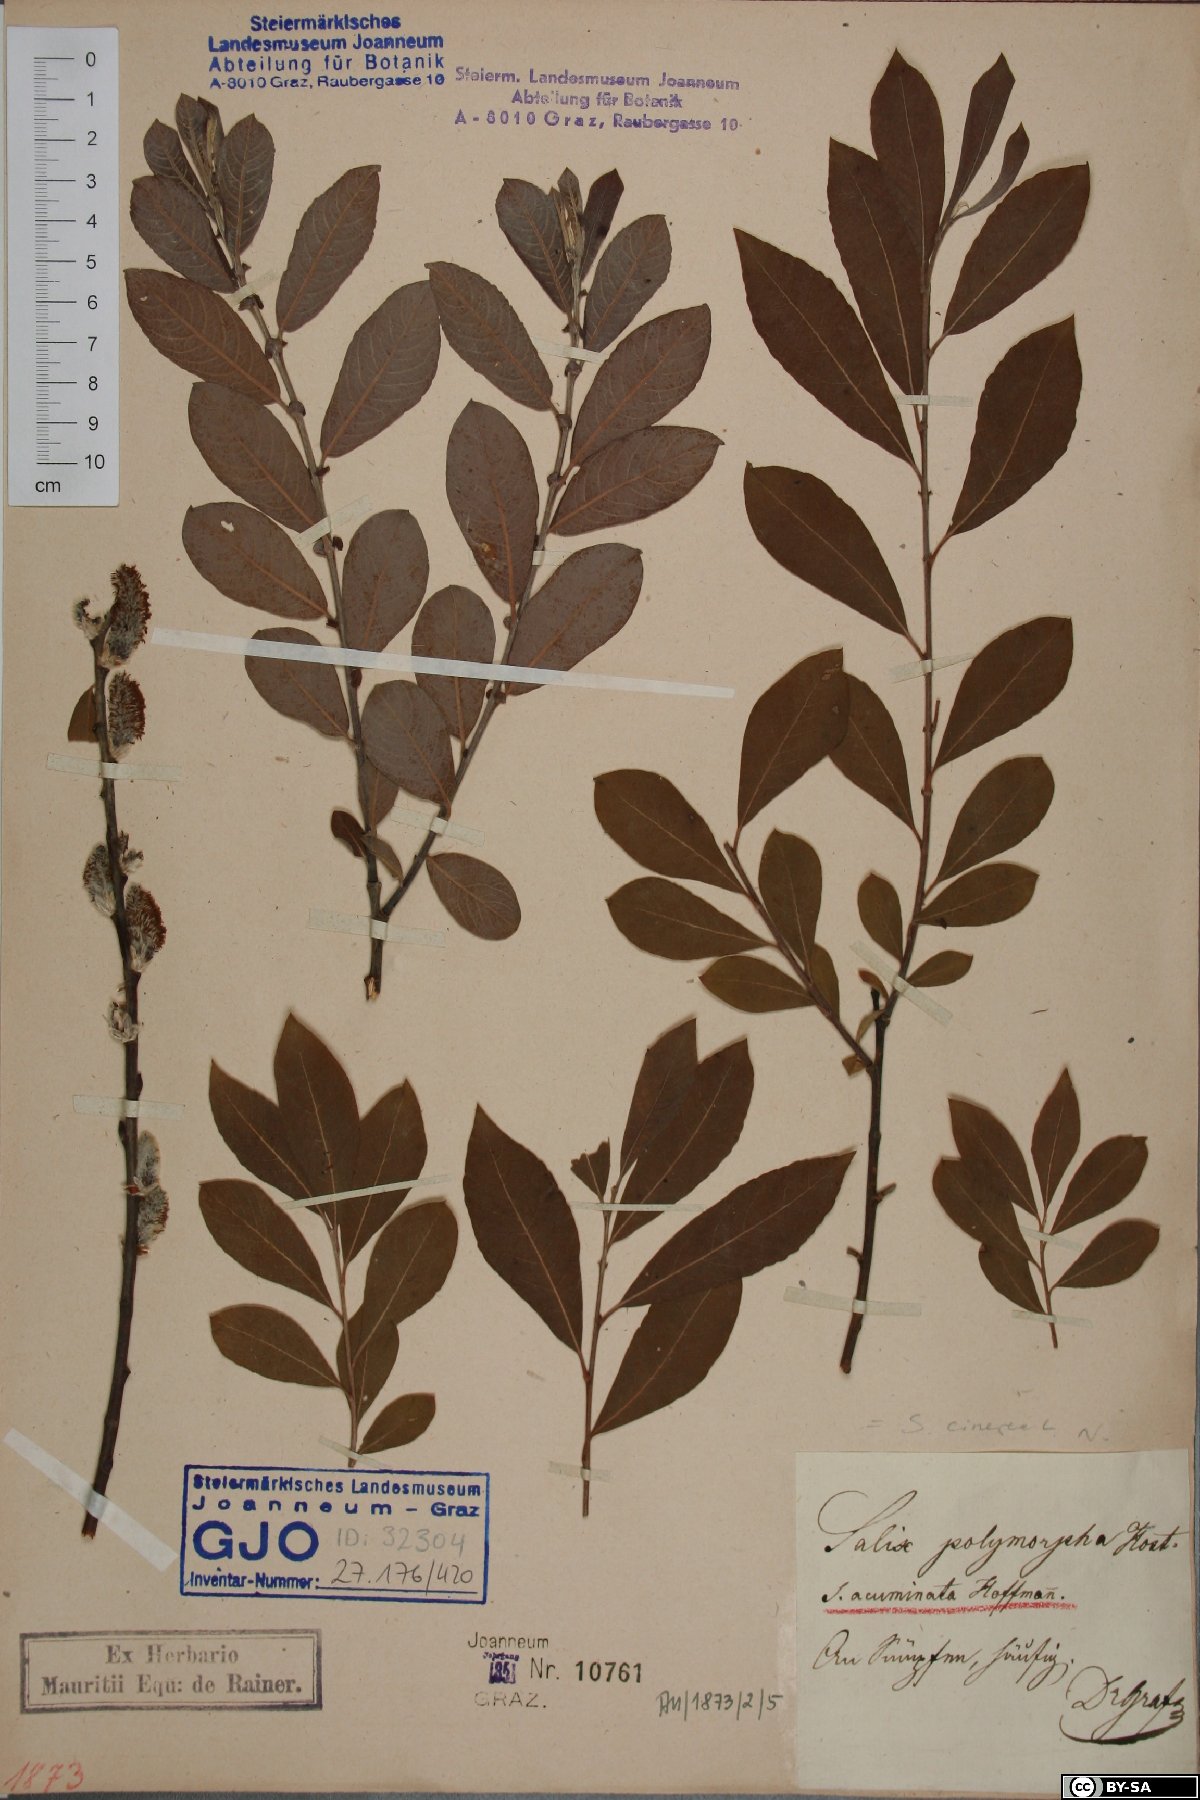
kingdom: Plantae
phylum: Tracheophyta
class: Magnoliopsida
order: Malpighiales
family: Salicaceae
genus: Salix
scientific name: Salix repens
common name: Creeping willow
